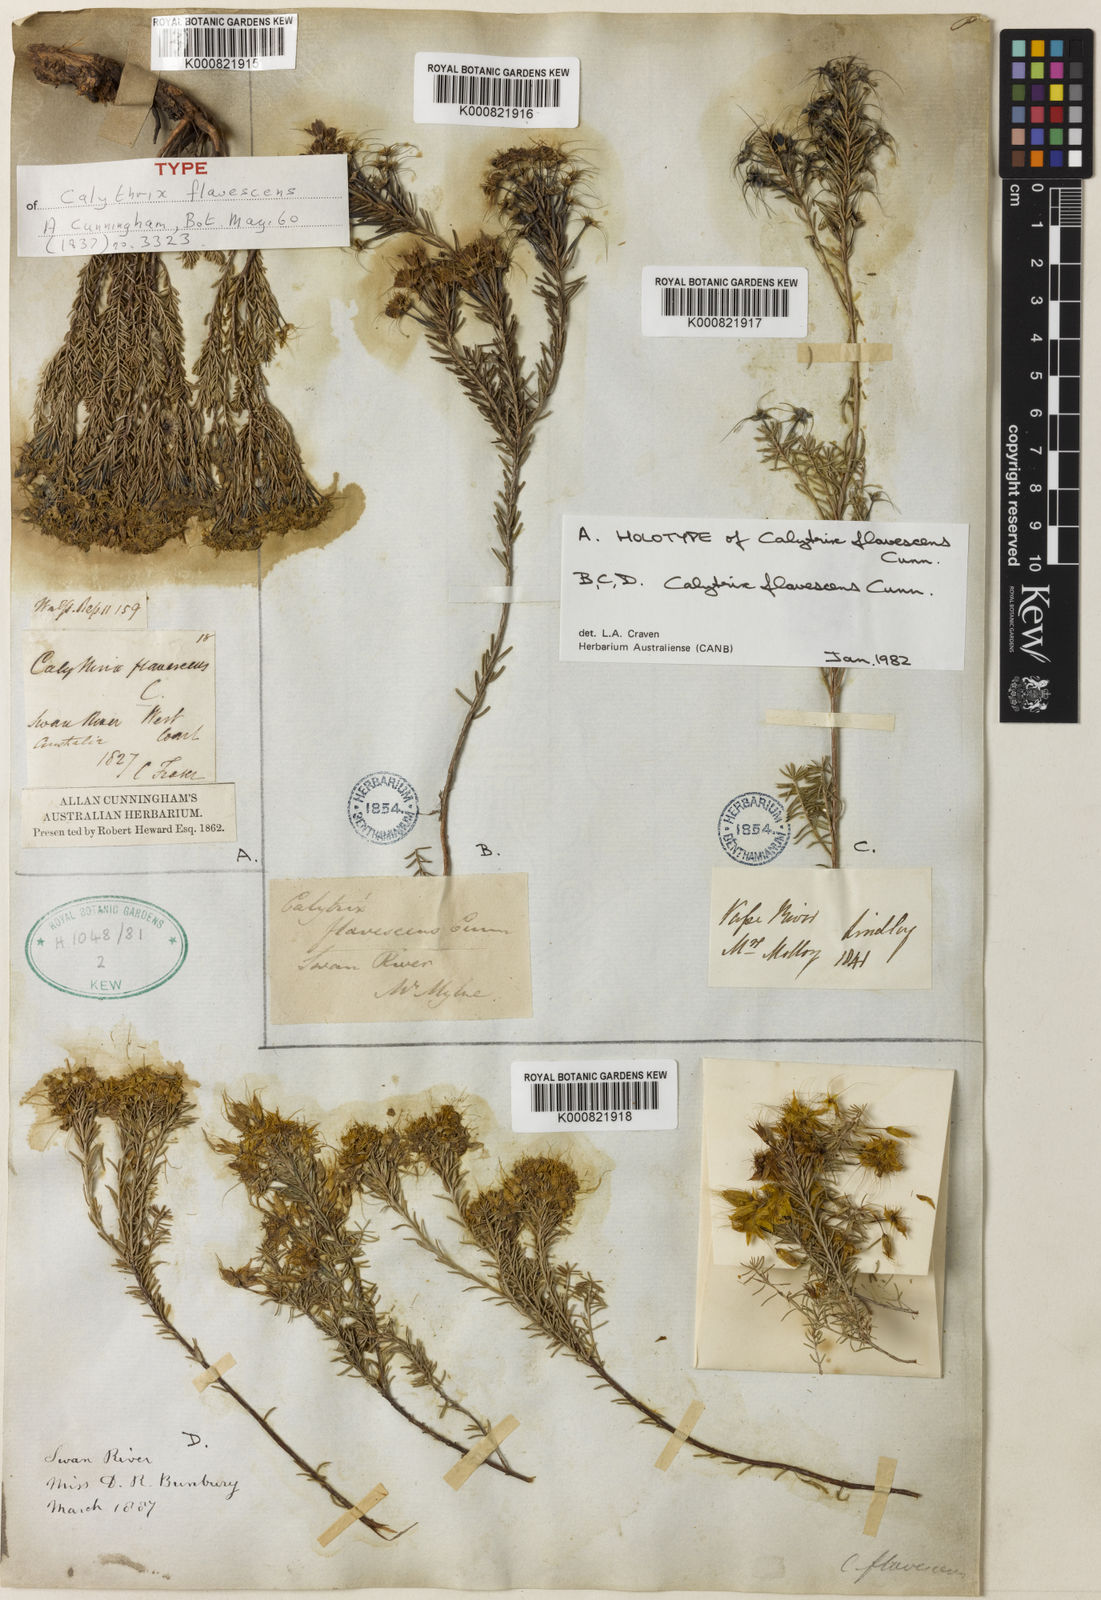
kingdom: Plantae
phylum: Tracheophyta
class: Magnoliopsida
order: Myrtales
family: Myrtaceae
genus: Calytrix
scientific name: Calytrix flavescens
